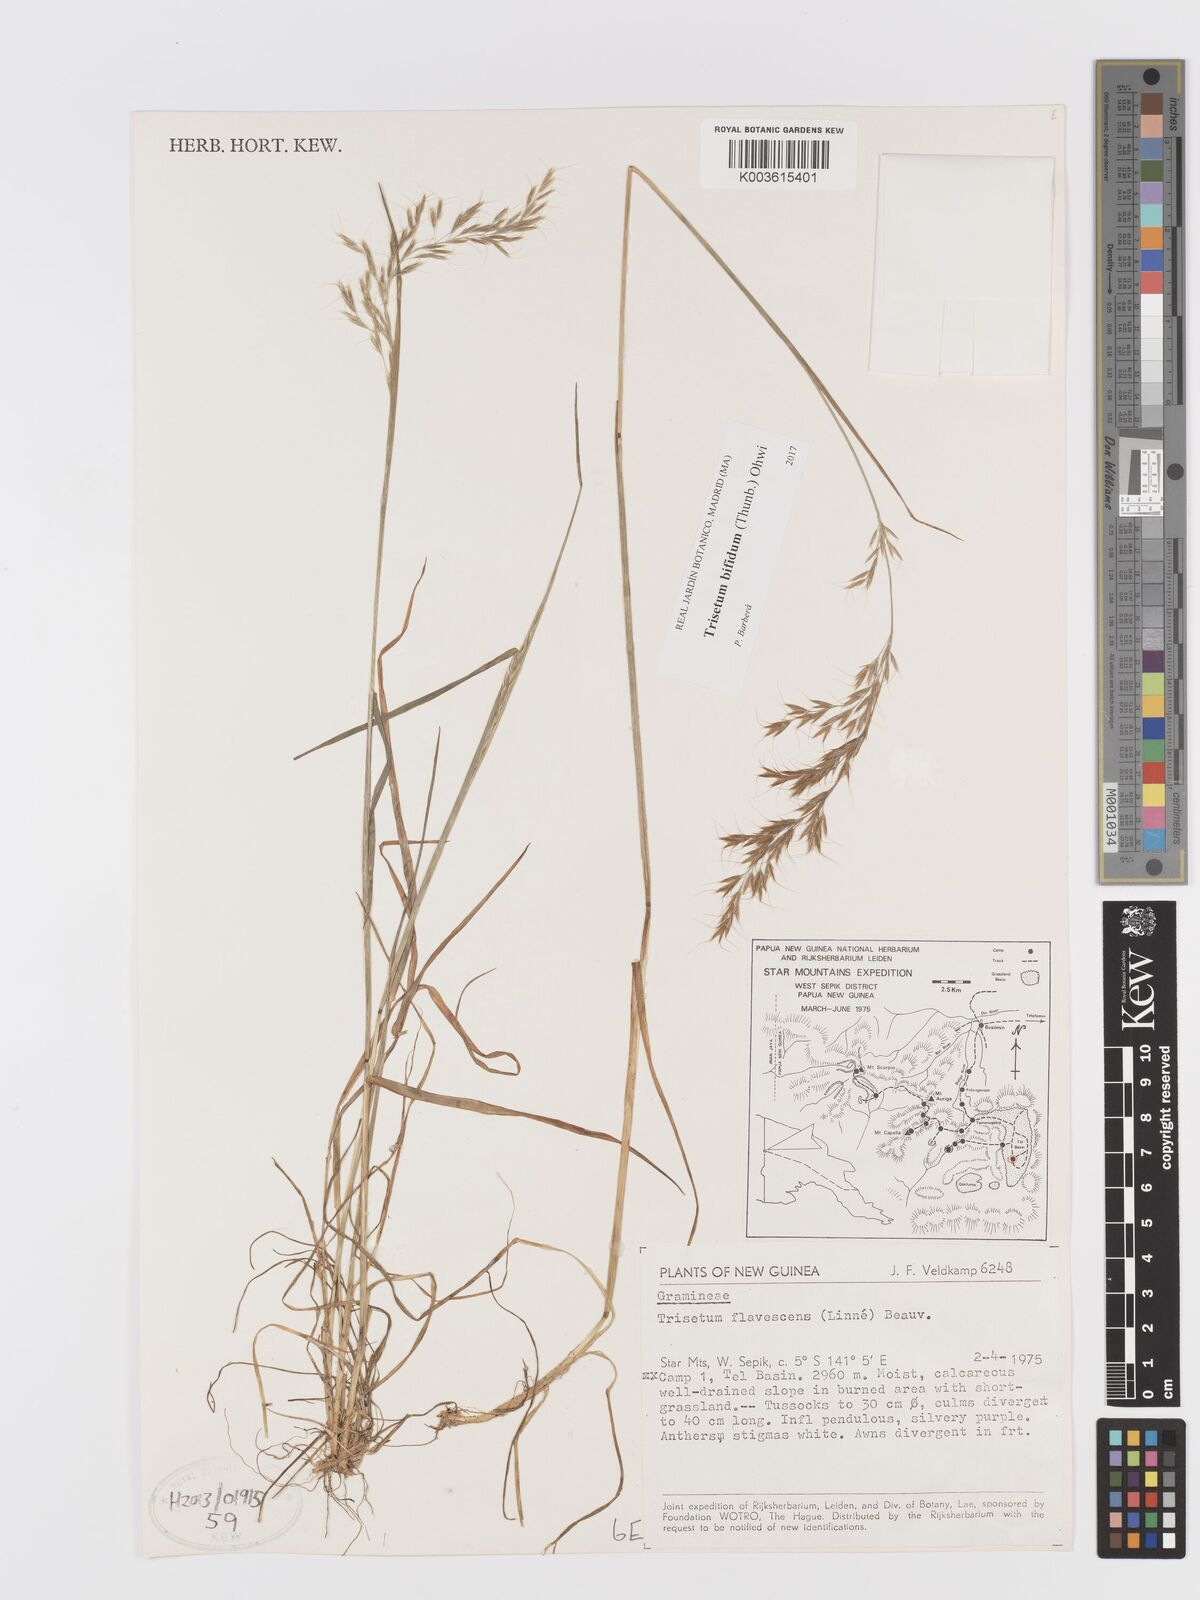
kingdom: Plantae
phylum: Tracheophyta
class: Liliopsida
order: Poales
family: Poaceae
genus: Sibirotrisetum
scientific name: Sibirotrisetum bifidum
